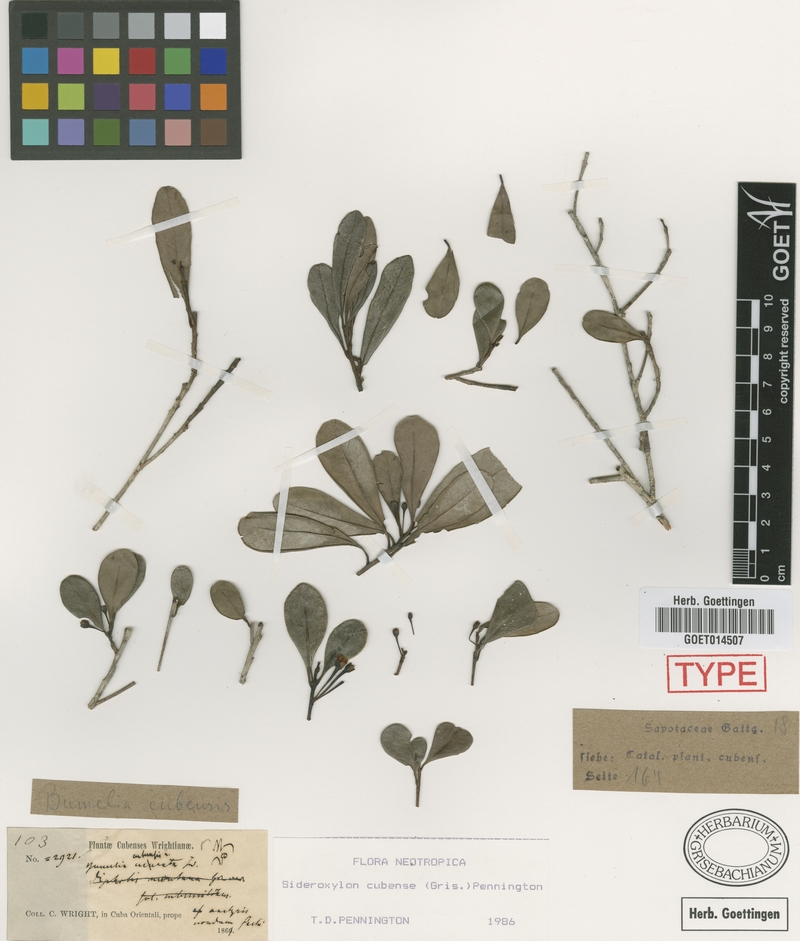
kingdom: Plantae
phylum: Tracheophyta
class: Magnoliopsida
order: Ericales
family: Sapotaceae
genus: Sideroxylon
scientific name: Sideroxylon cubense
